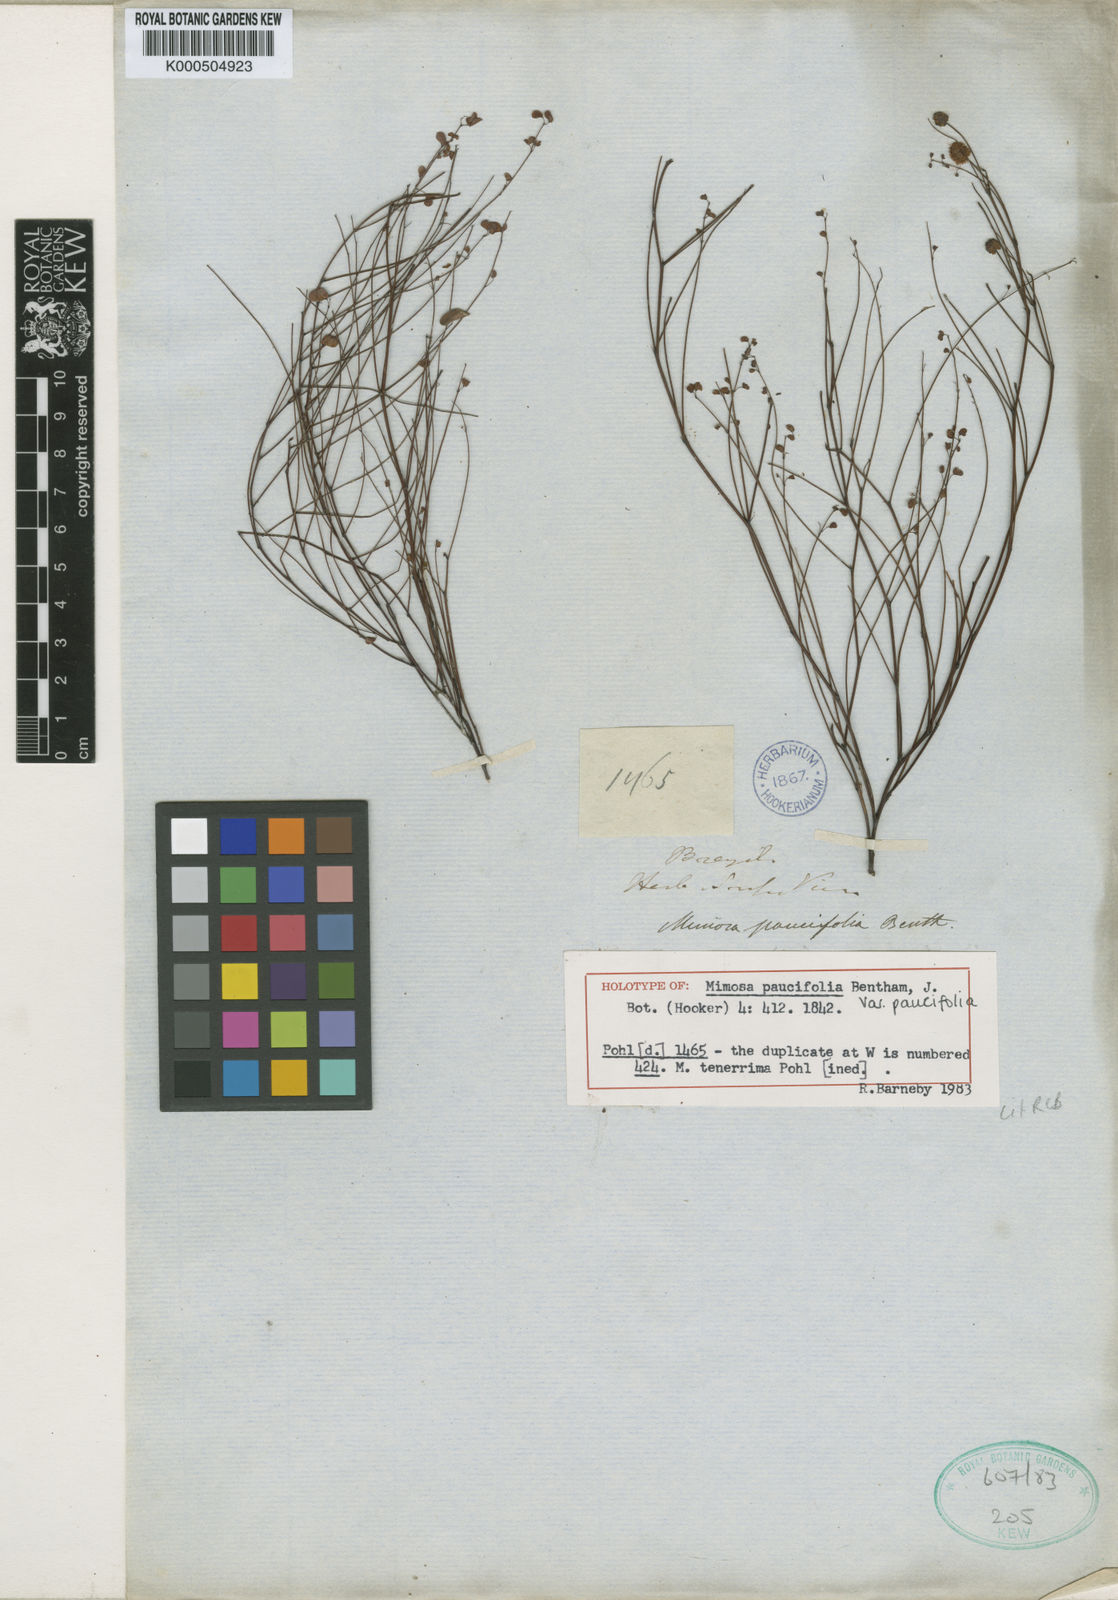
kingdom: Plantae
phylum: Tracheophyta
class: Magnoliopsida
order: Fabales
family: Fabaceae
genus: Mimosa
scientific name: Mimosa paucifolia
